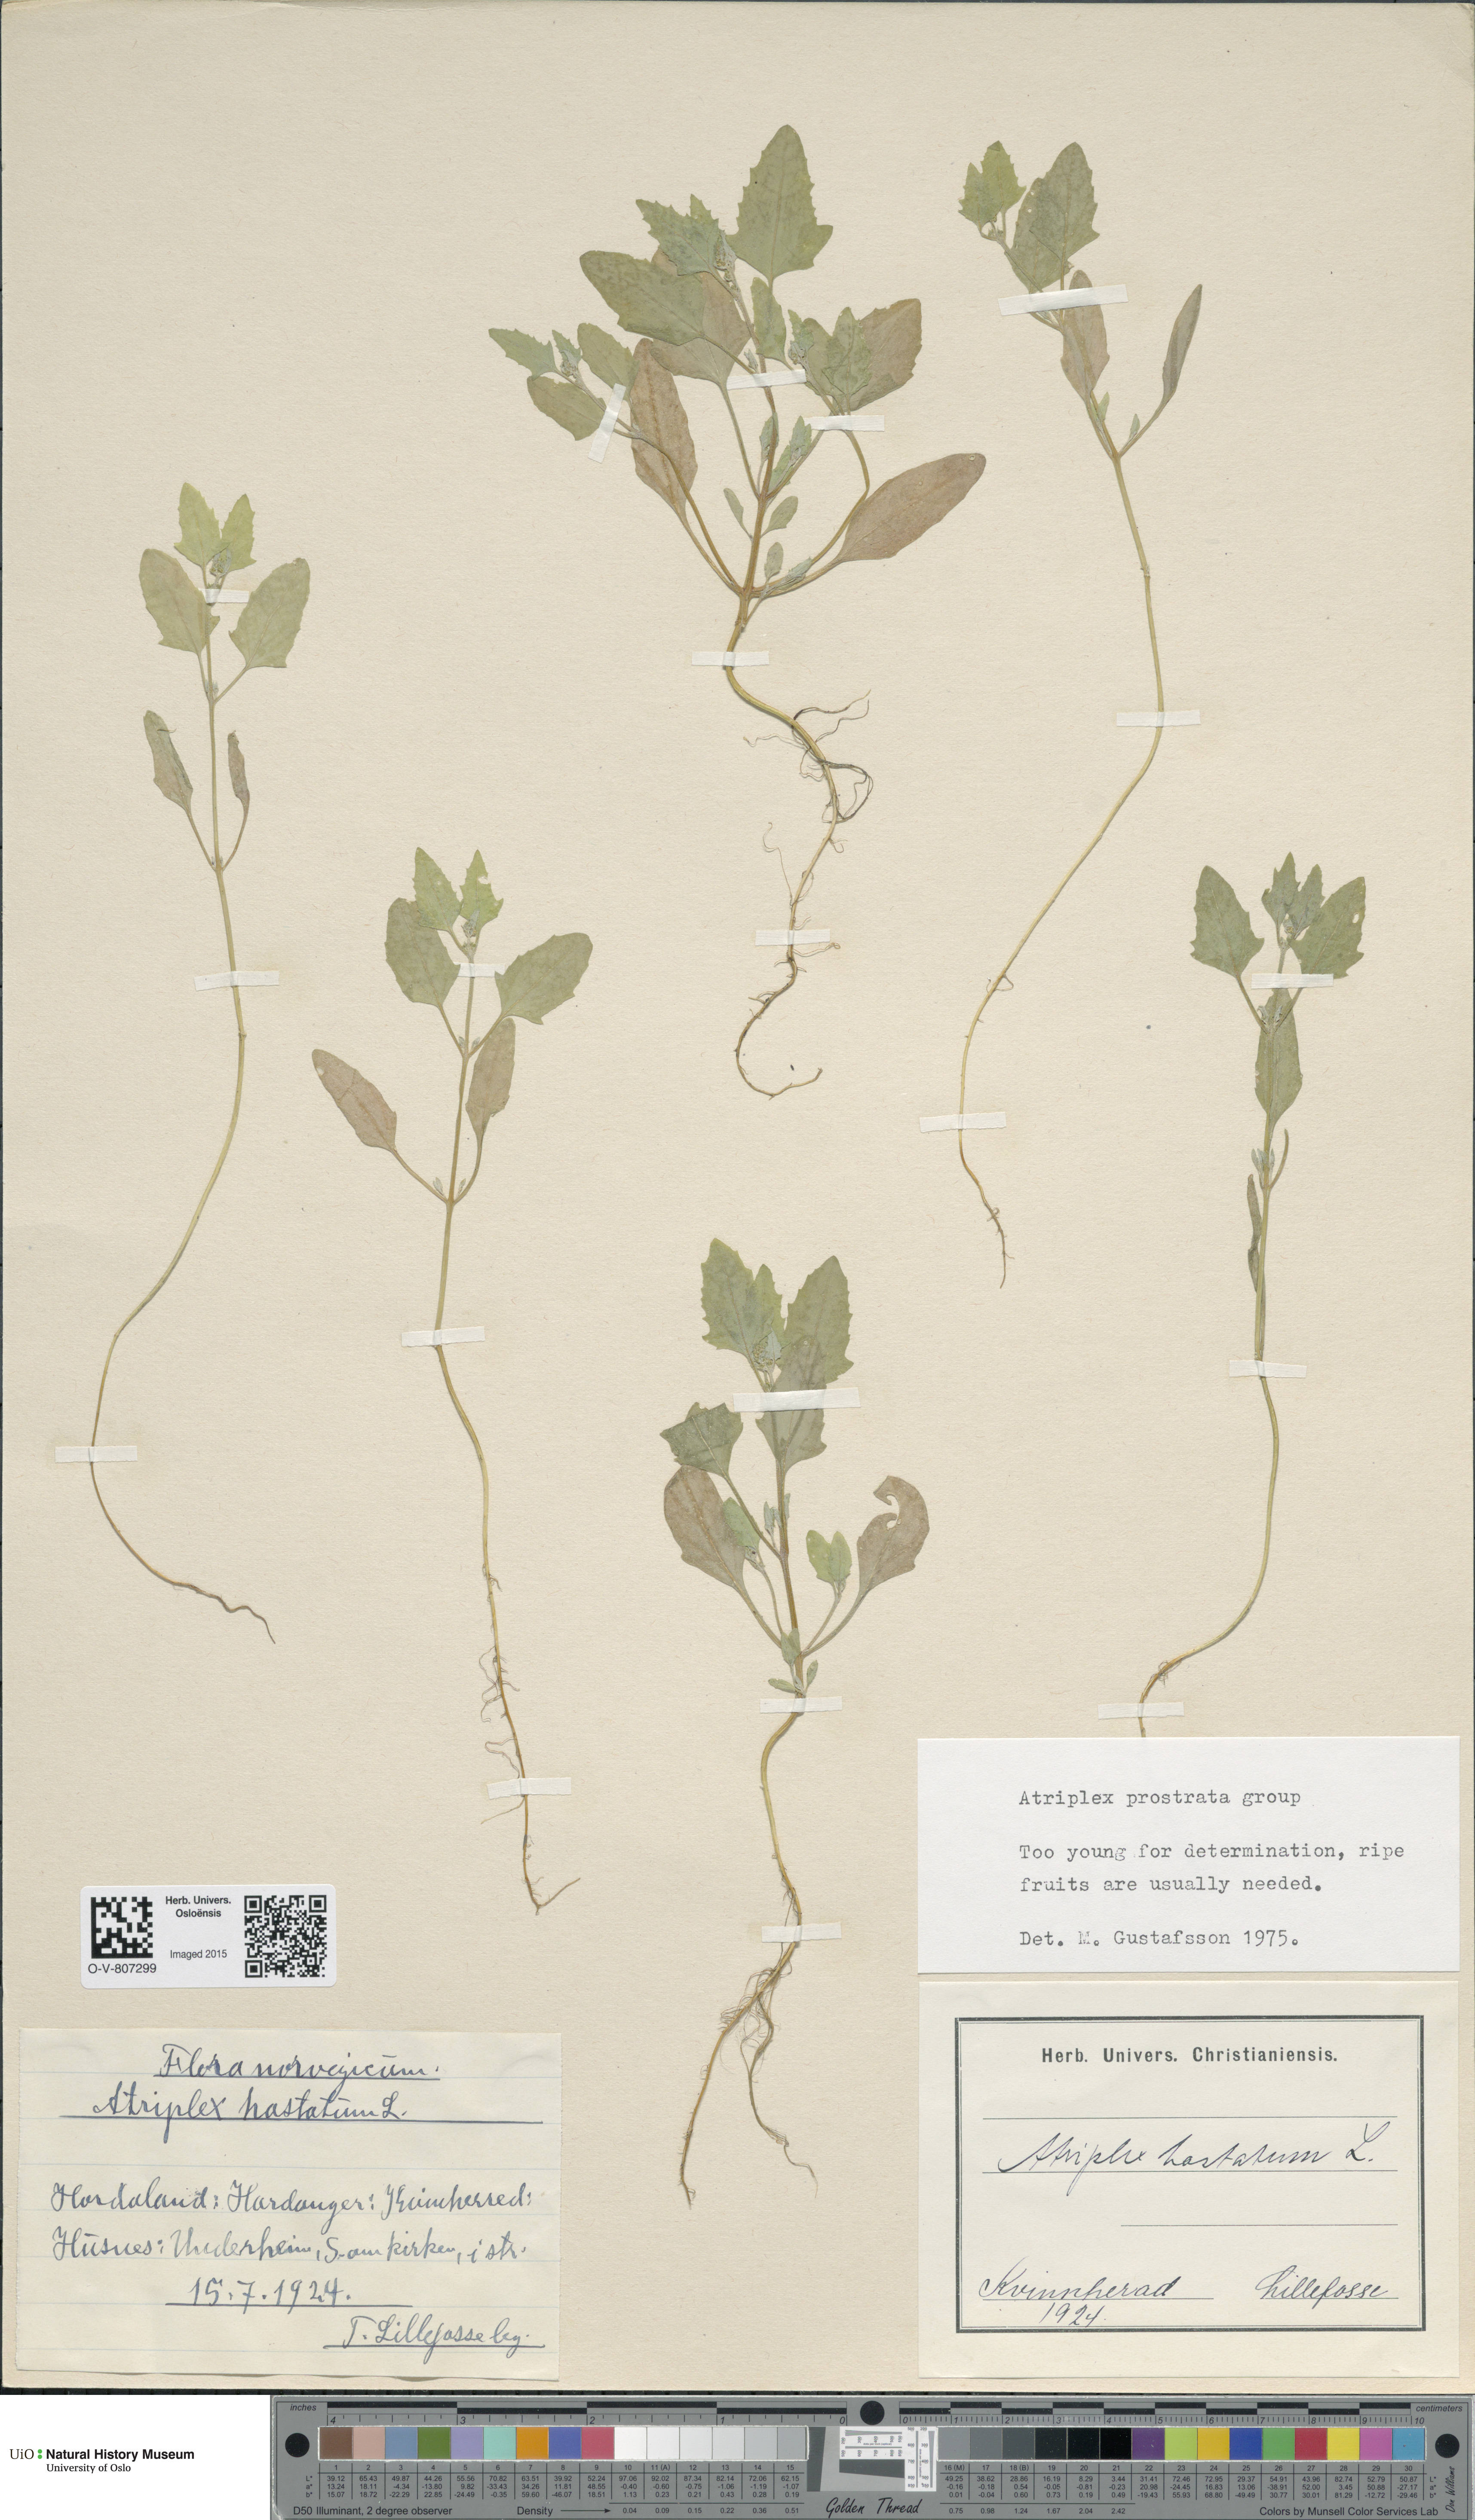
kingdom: Plantae
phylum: Tracheophyta
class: Magnoliopsida
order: Caryophyllales
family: Amaranthaceae
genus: Atriplex
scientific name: Atriplex prostrata
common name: Spear-leaved orache
